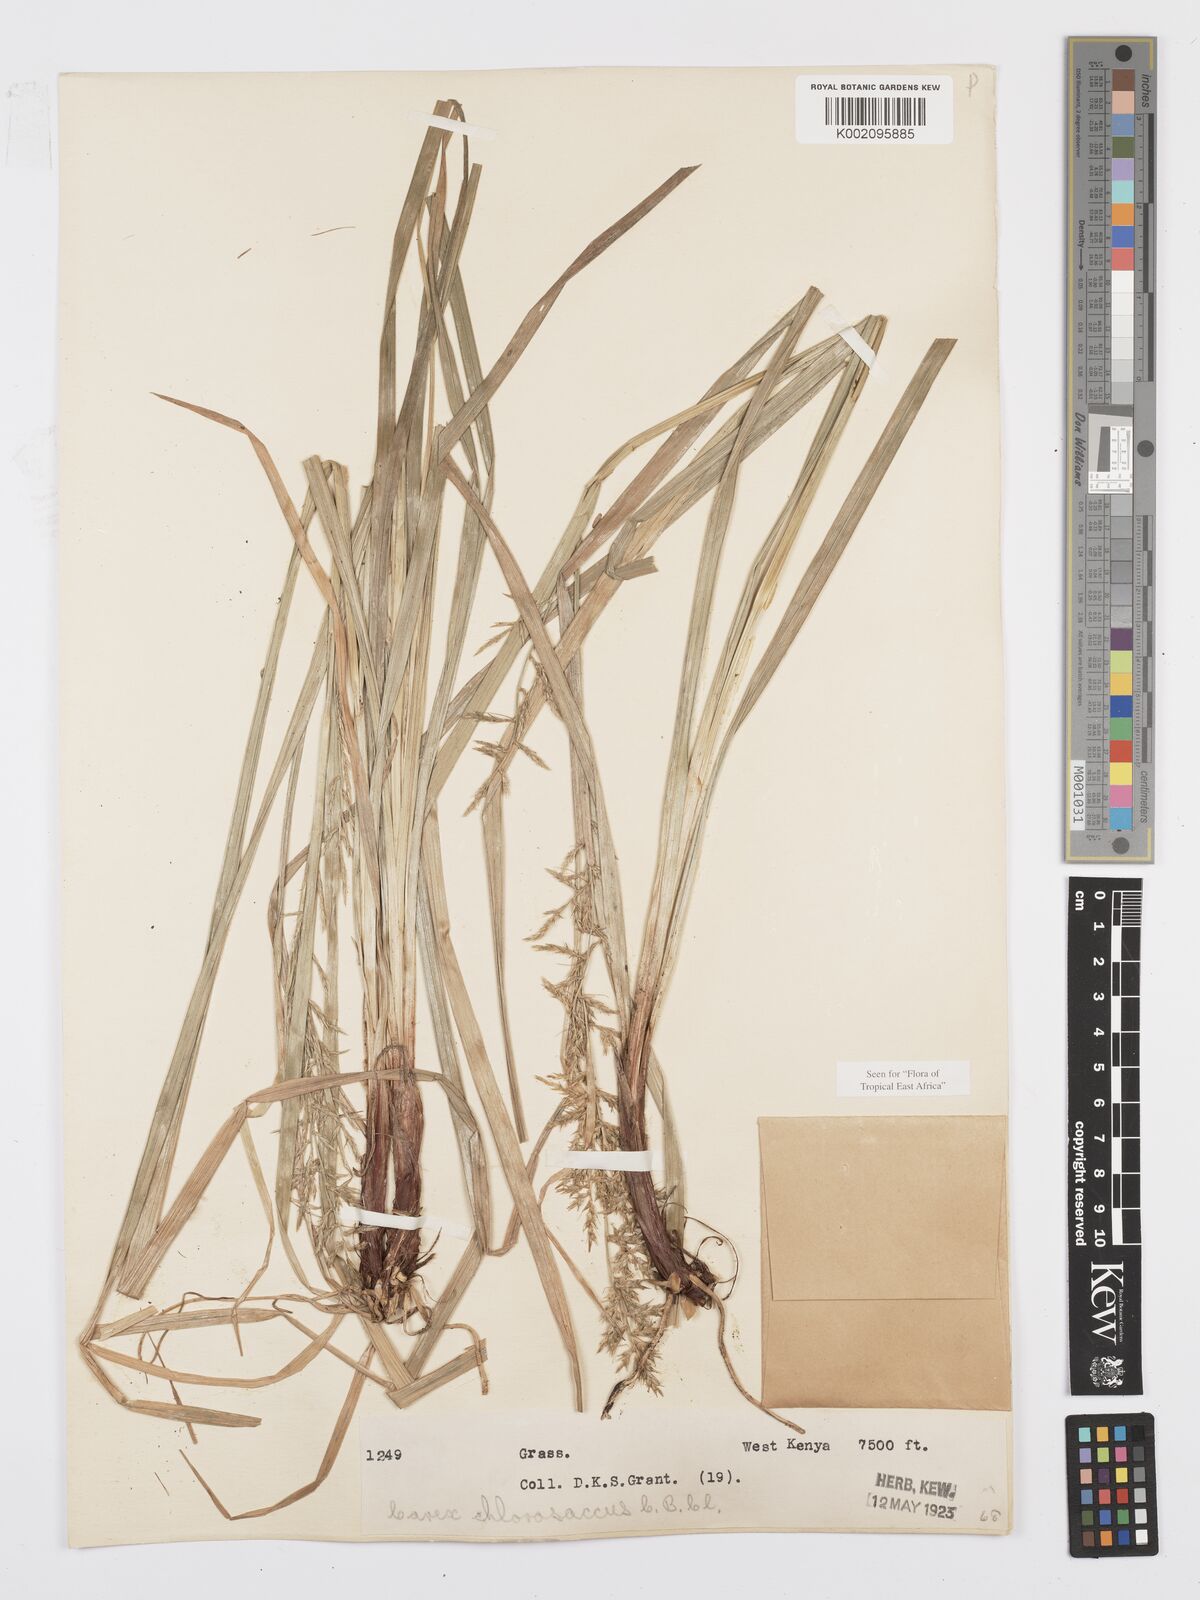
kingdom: Plantae
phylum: Tracheophyta
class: Liliopsida
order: Poales
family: Cyperaceae
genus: Carex
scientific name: Carex chlorosaccus
